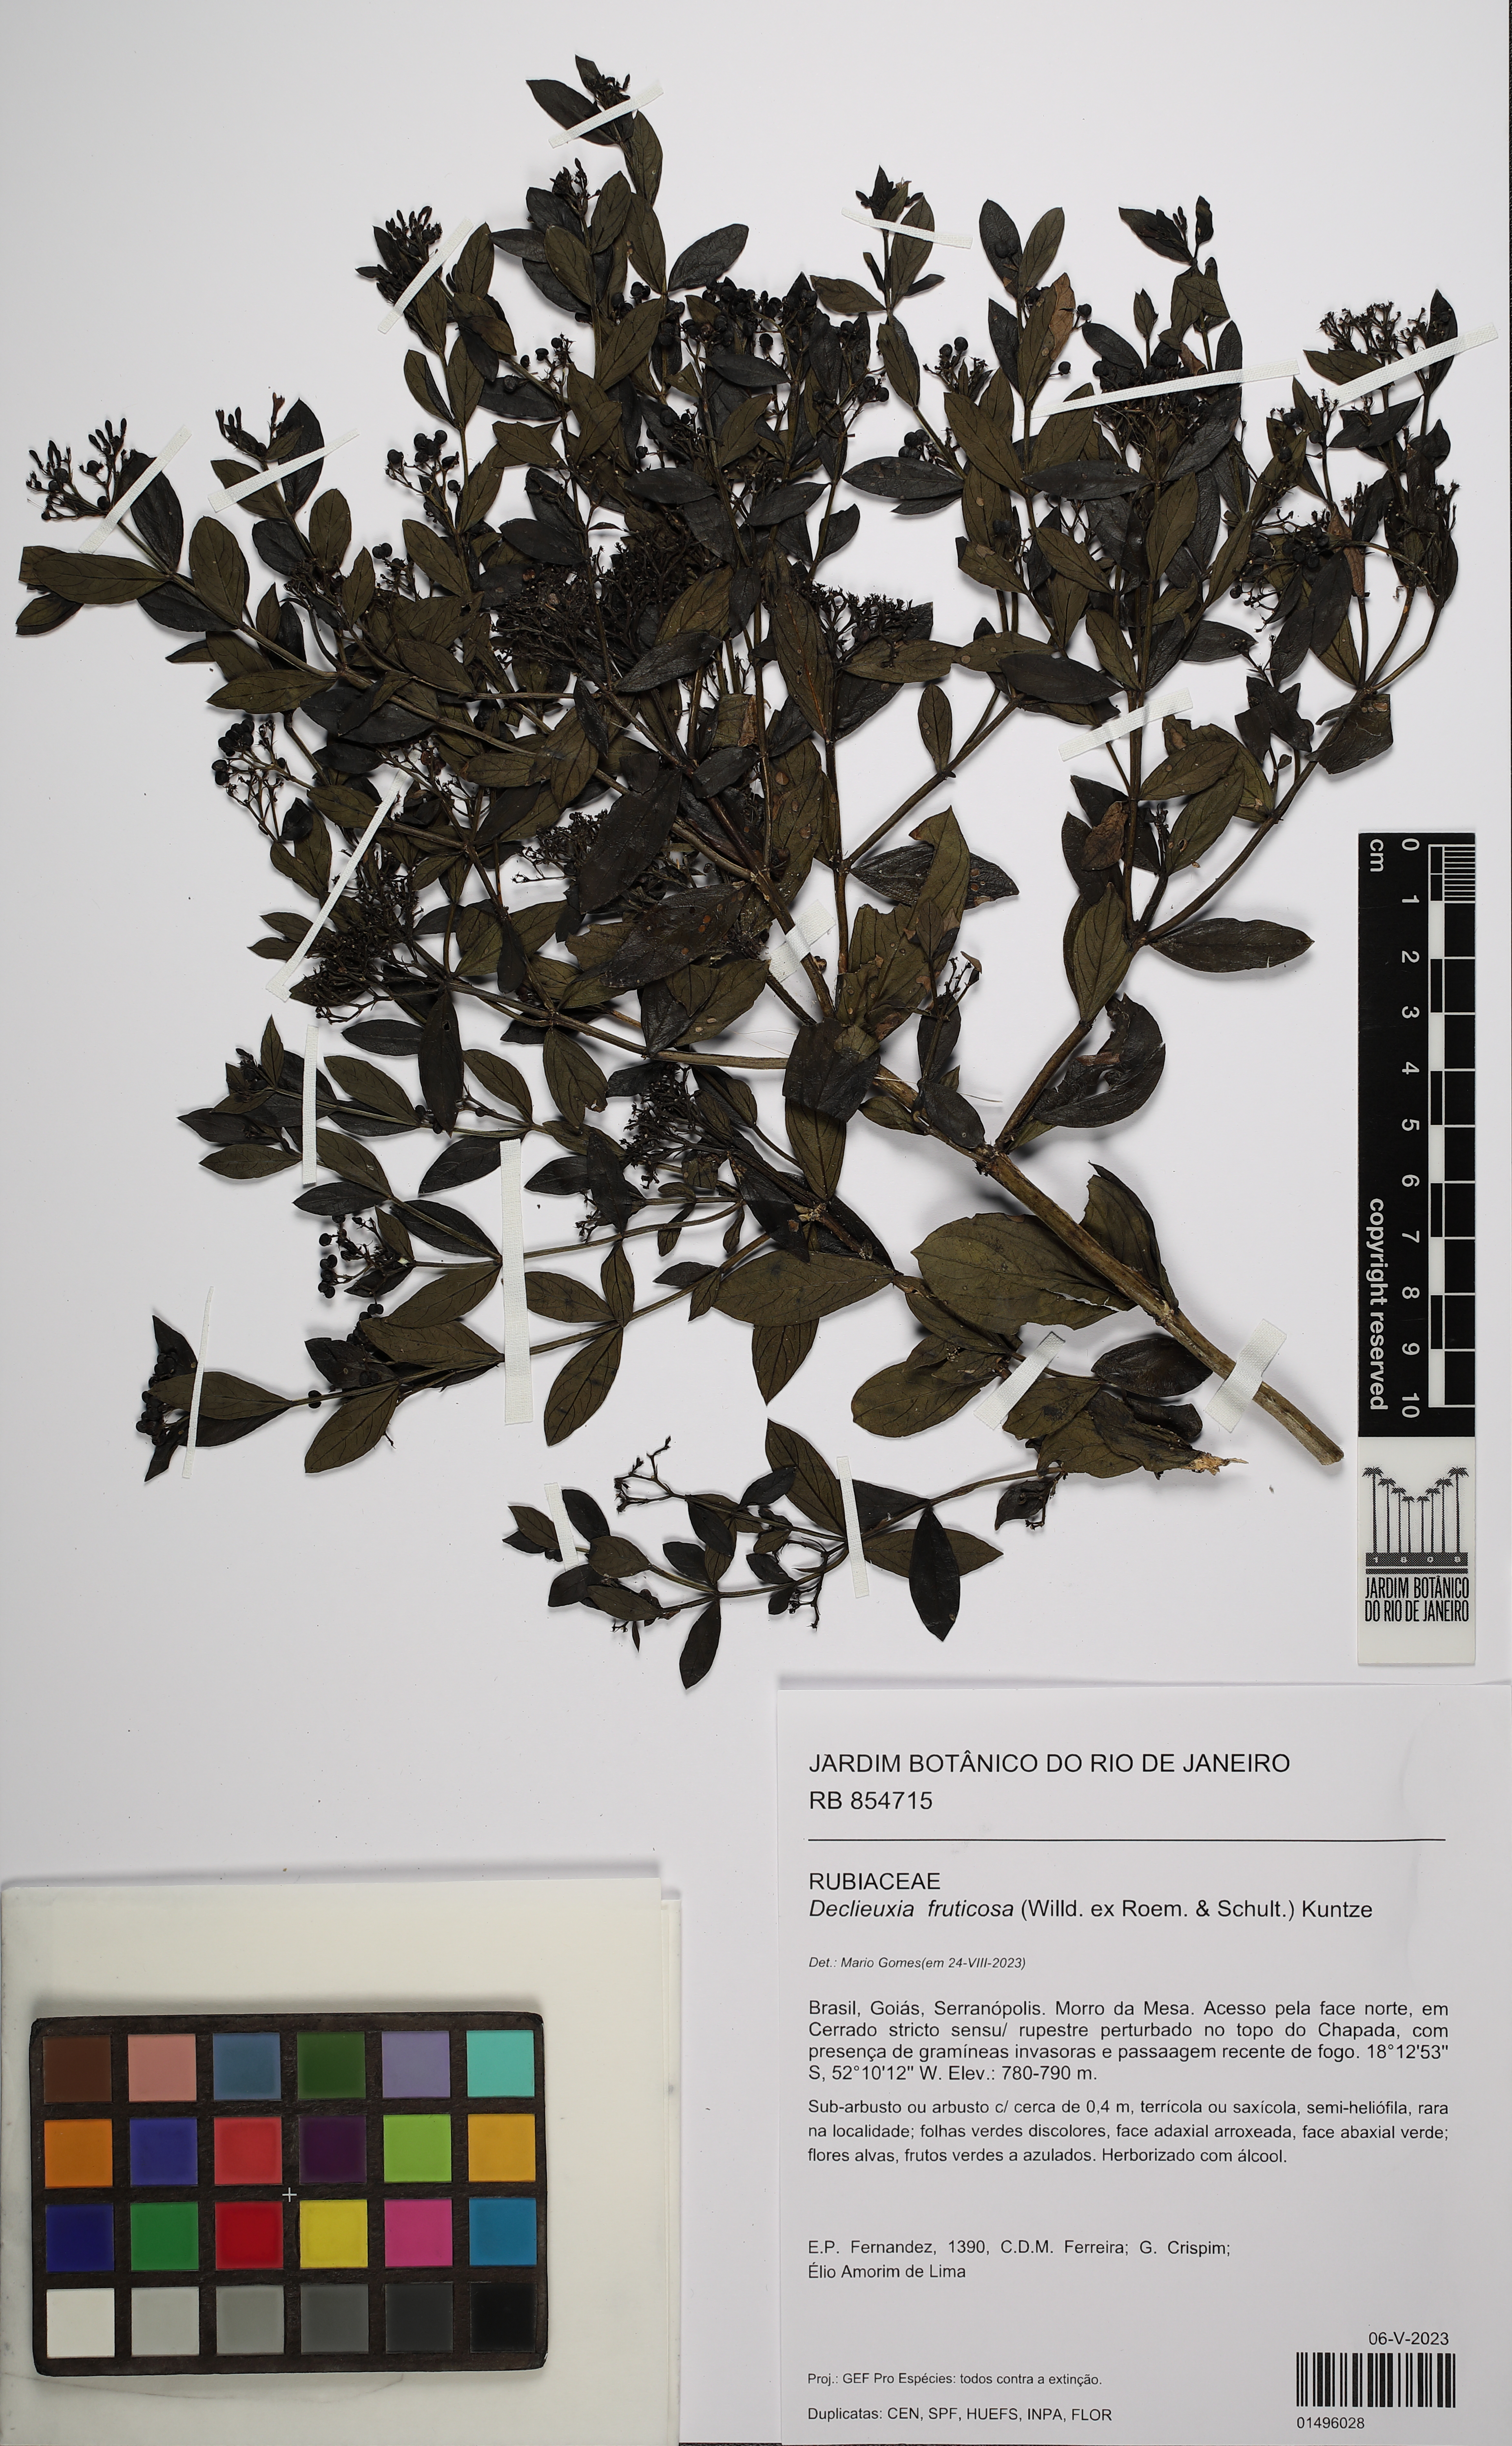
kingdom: Plantae
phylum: Tracheophyta
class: Magnoliopsida
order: Gentianales
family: Rubiaceae
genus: Declieuxia
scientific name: Declieuxia fruticosa
